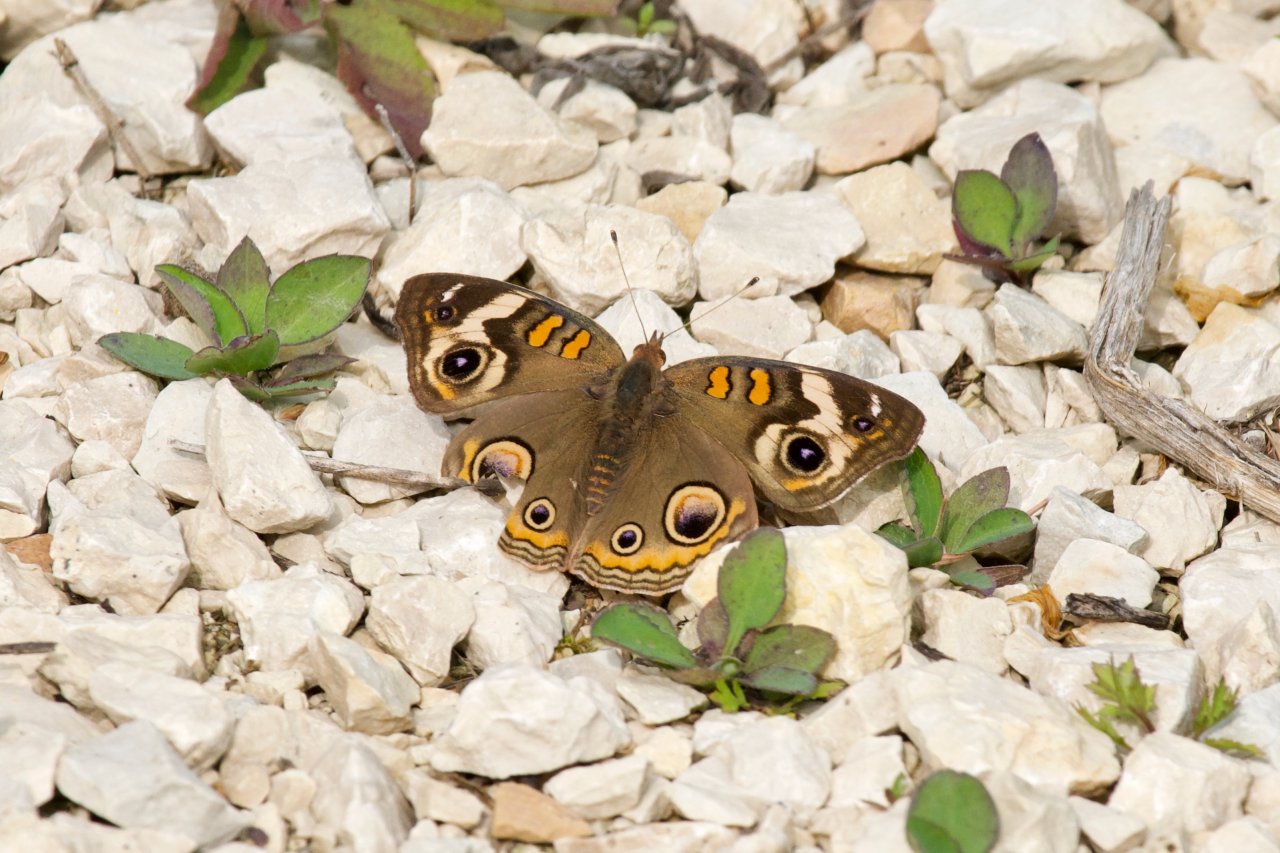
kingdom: Animalia
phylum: Arthropoda
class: Insecta
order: Lepidoptera
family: Nymphalidae
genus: Junonia
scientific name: Junonia coenia
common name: Common Buckeye
